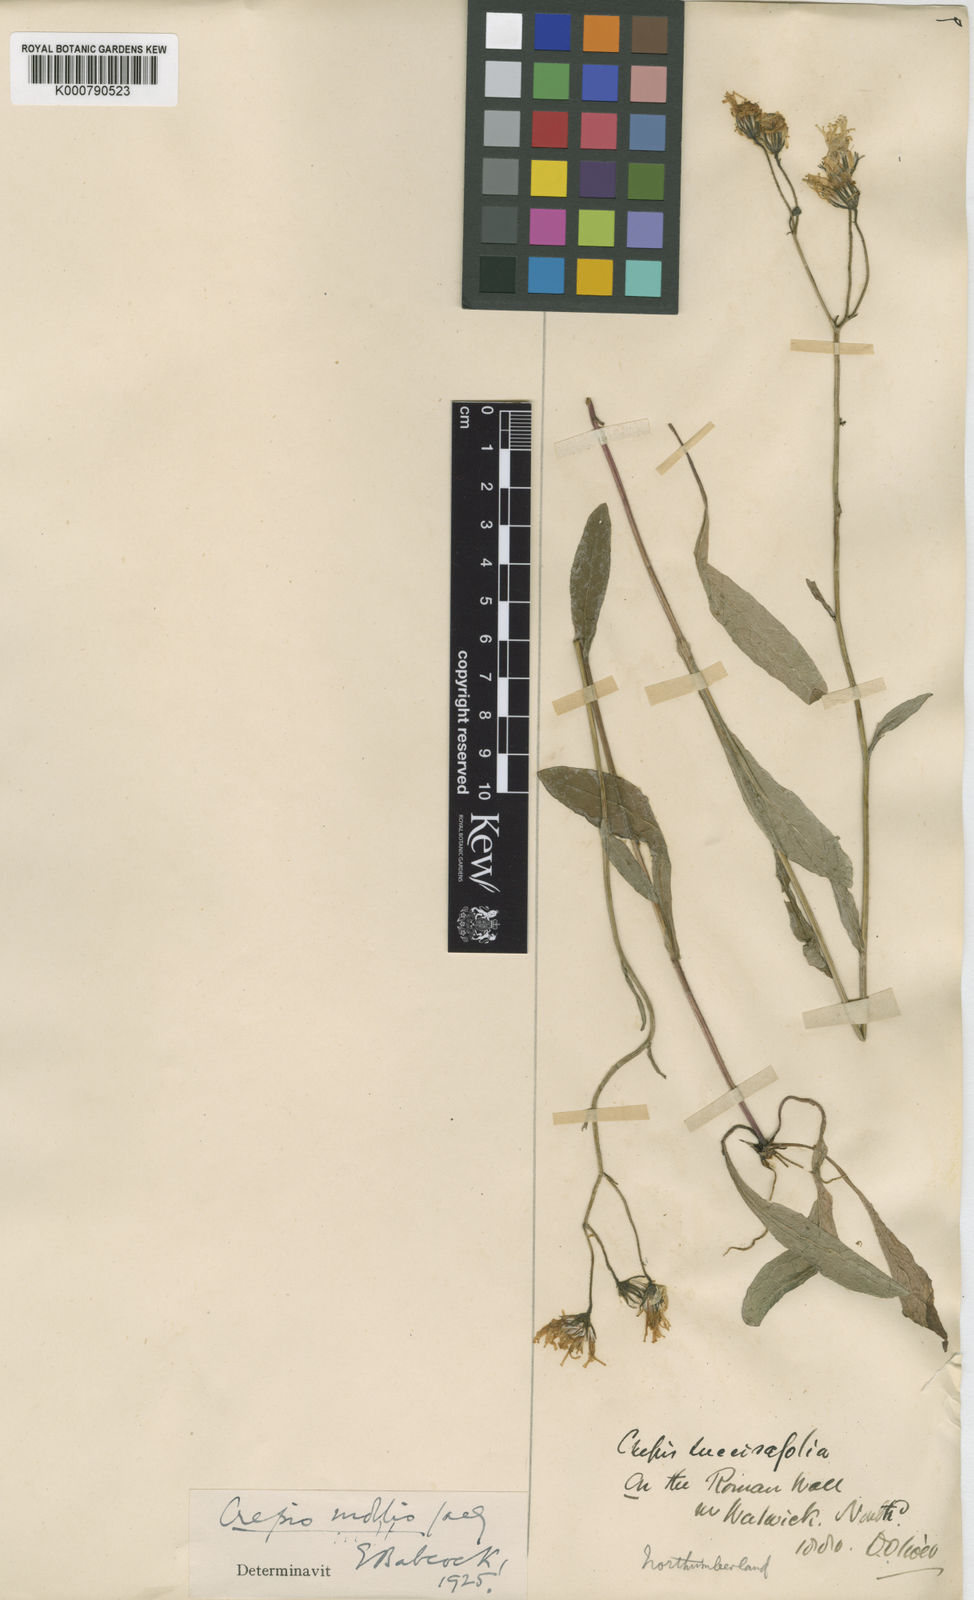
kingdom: Plantae
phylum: Tracheophyta
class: Magnoliopsida
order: Asterales
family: Asteraceae
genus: Crepis
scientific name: Crepis mollis
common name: Northern hawk's-beard
